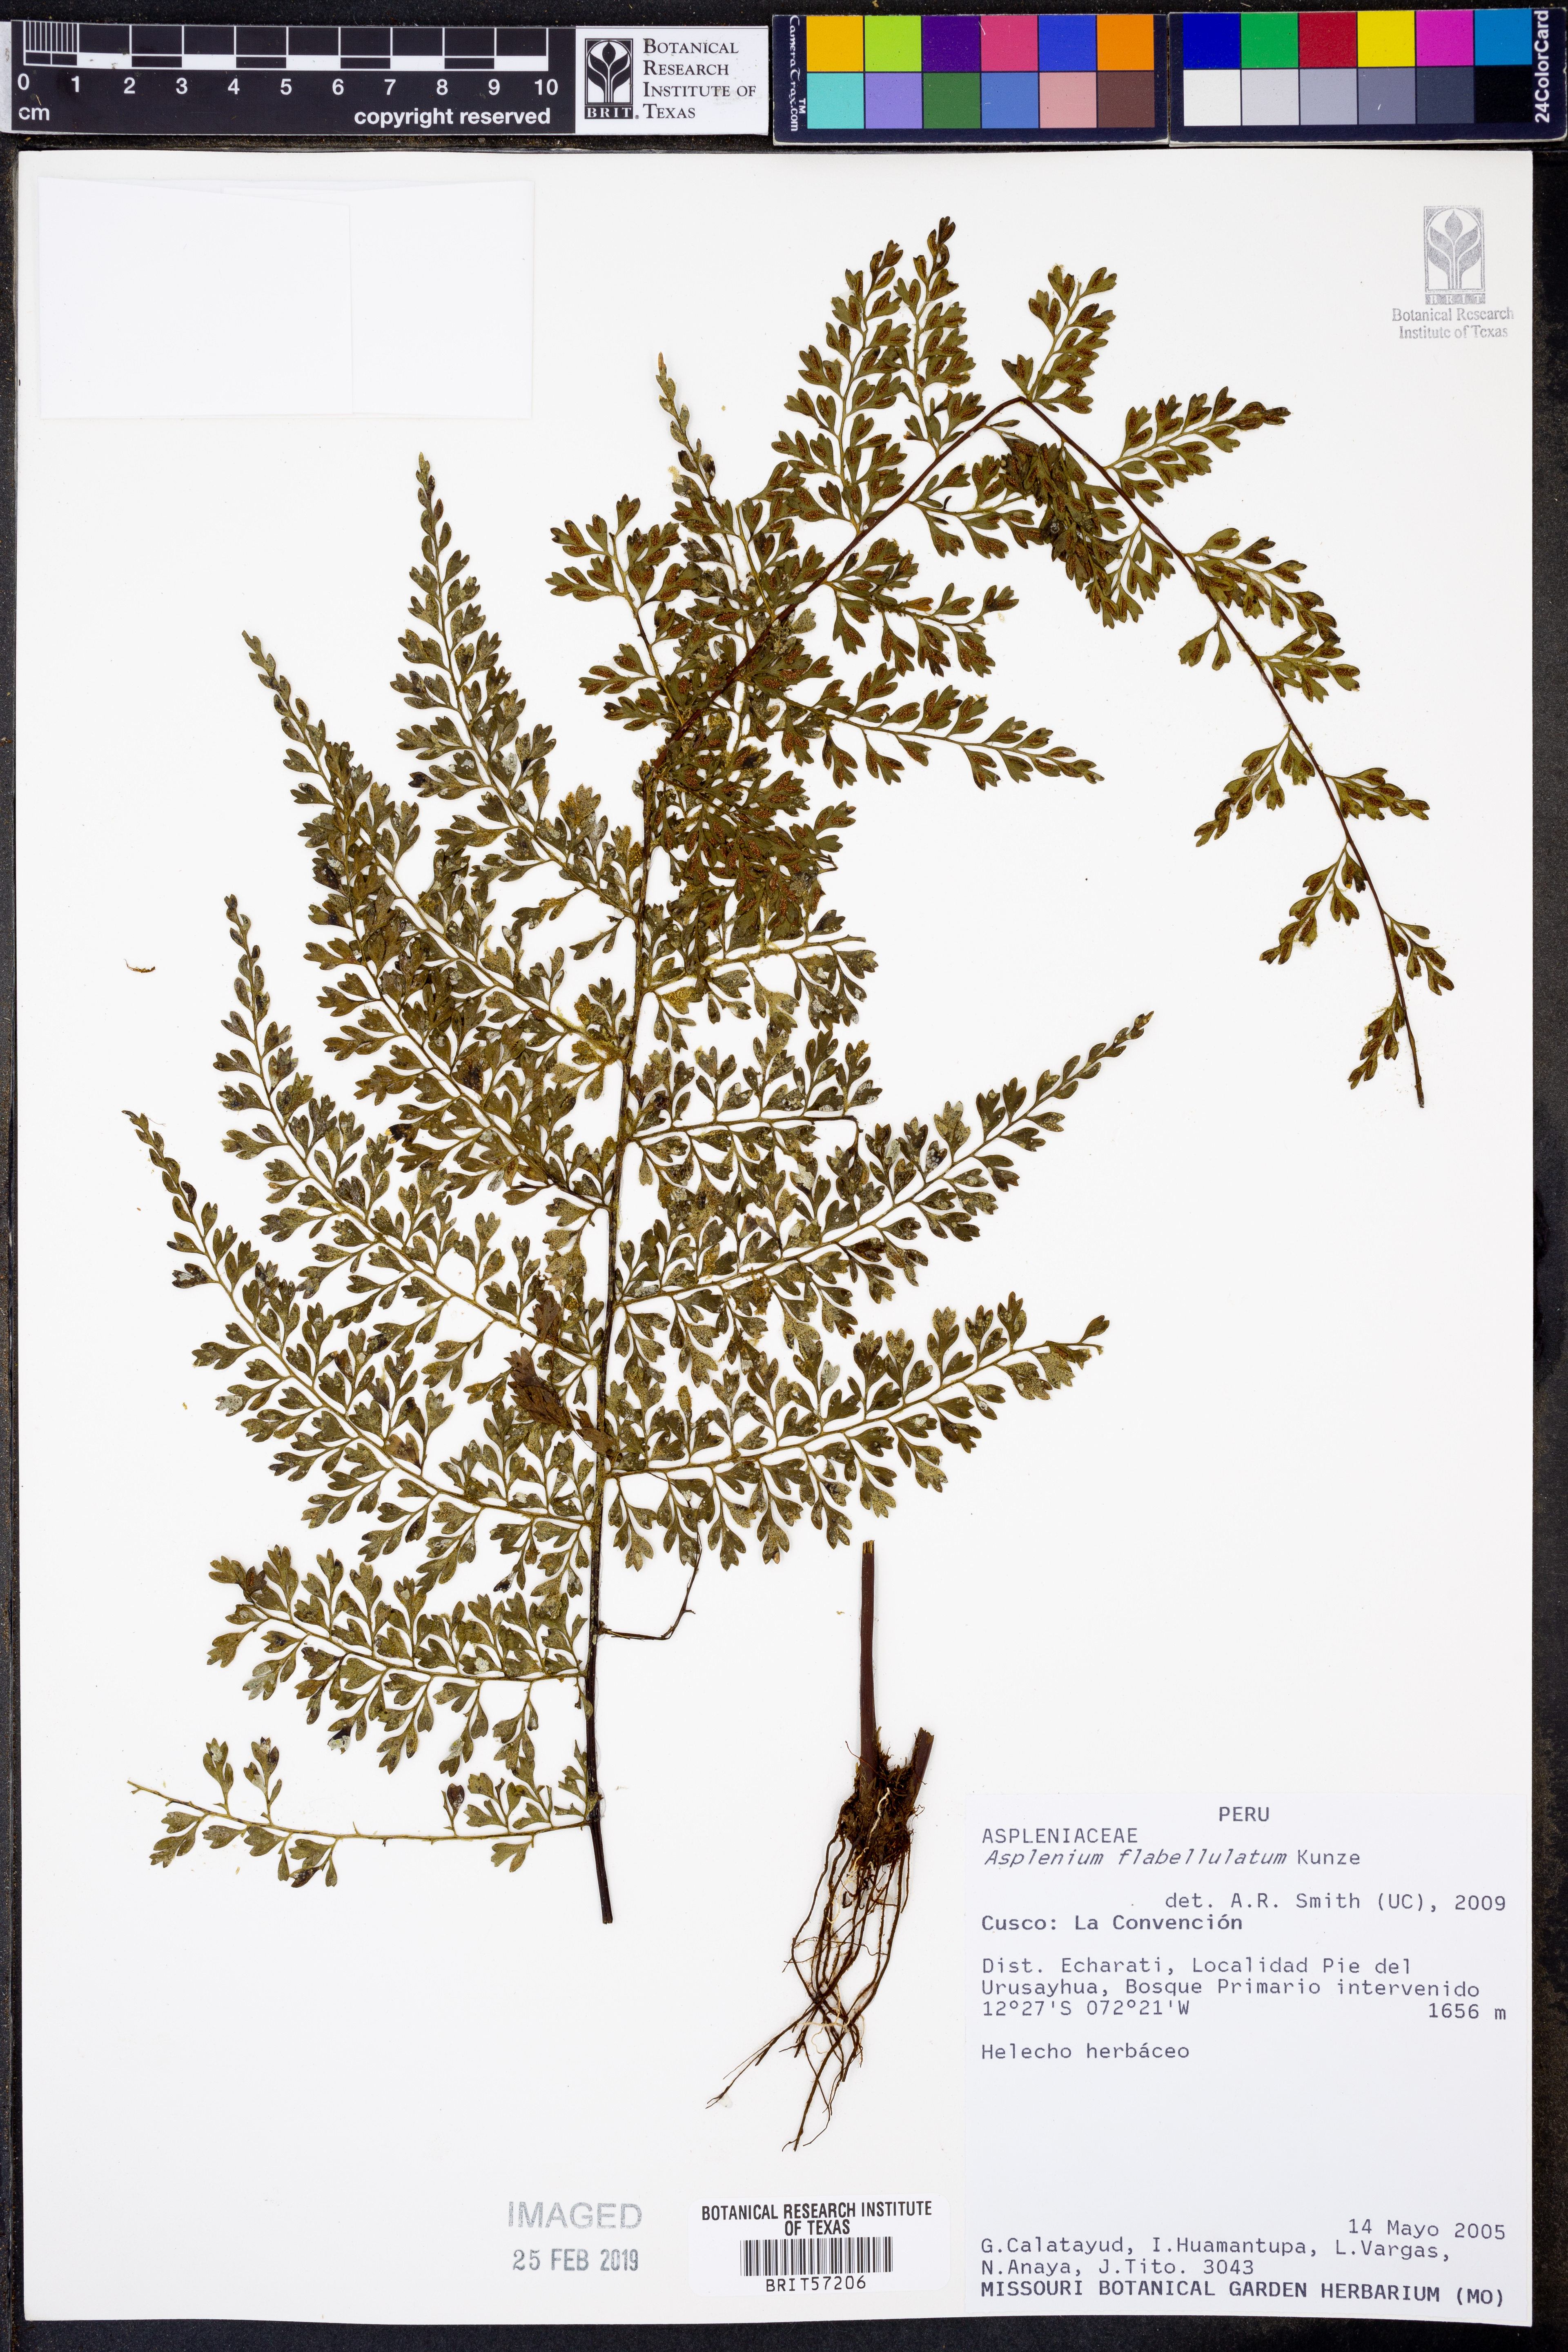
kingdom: Plantae
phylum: Tracheophyta
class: Polypodiopsida
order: Polypodiales
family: Aspleniaceae
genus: Asplenium
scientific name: Asplenium flabellulatum
